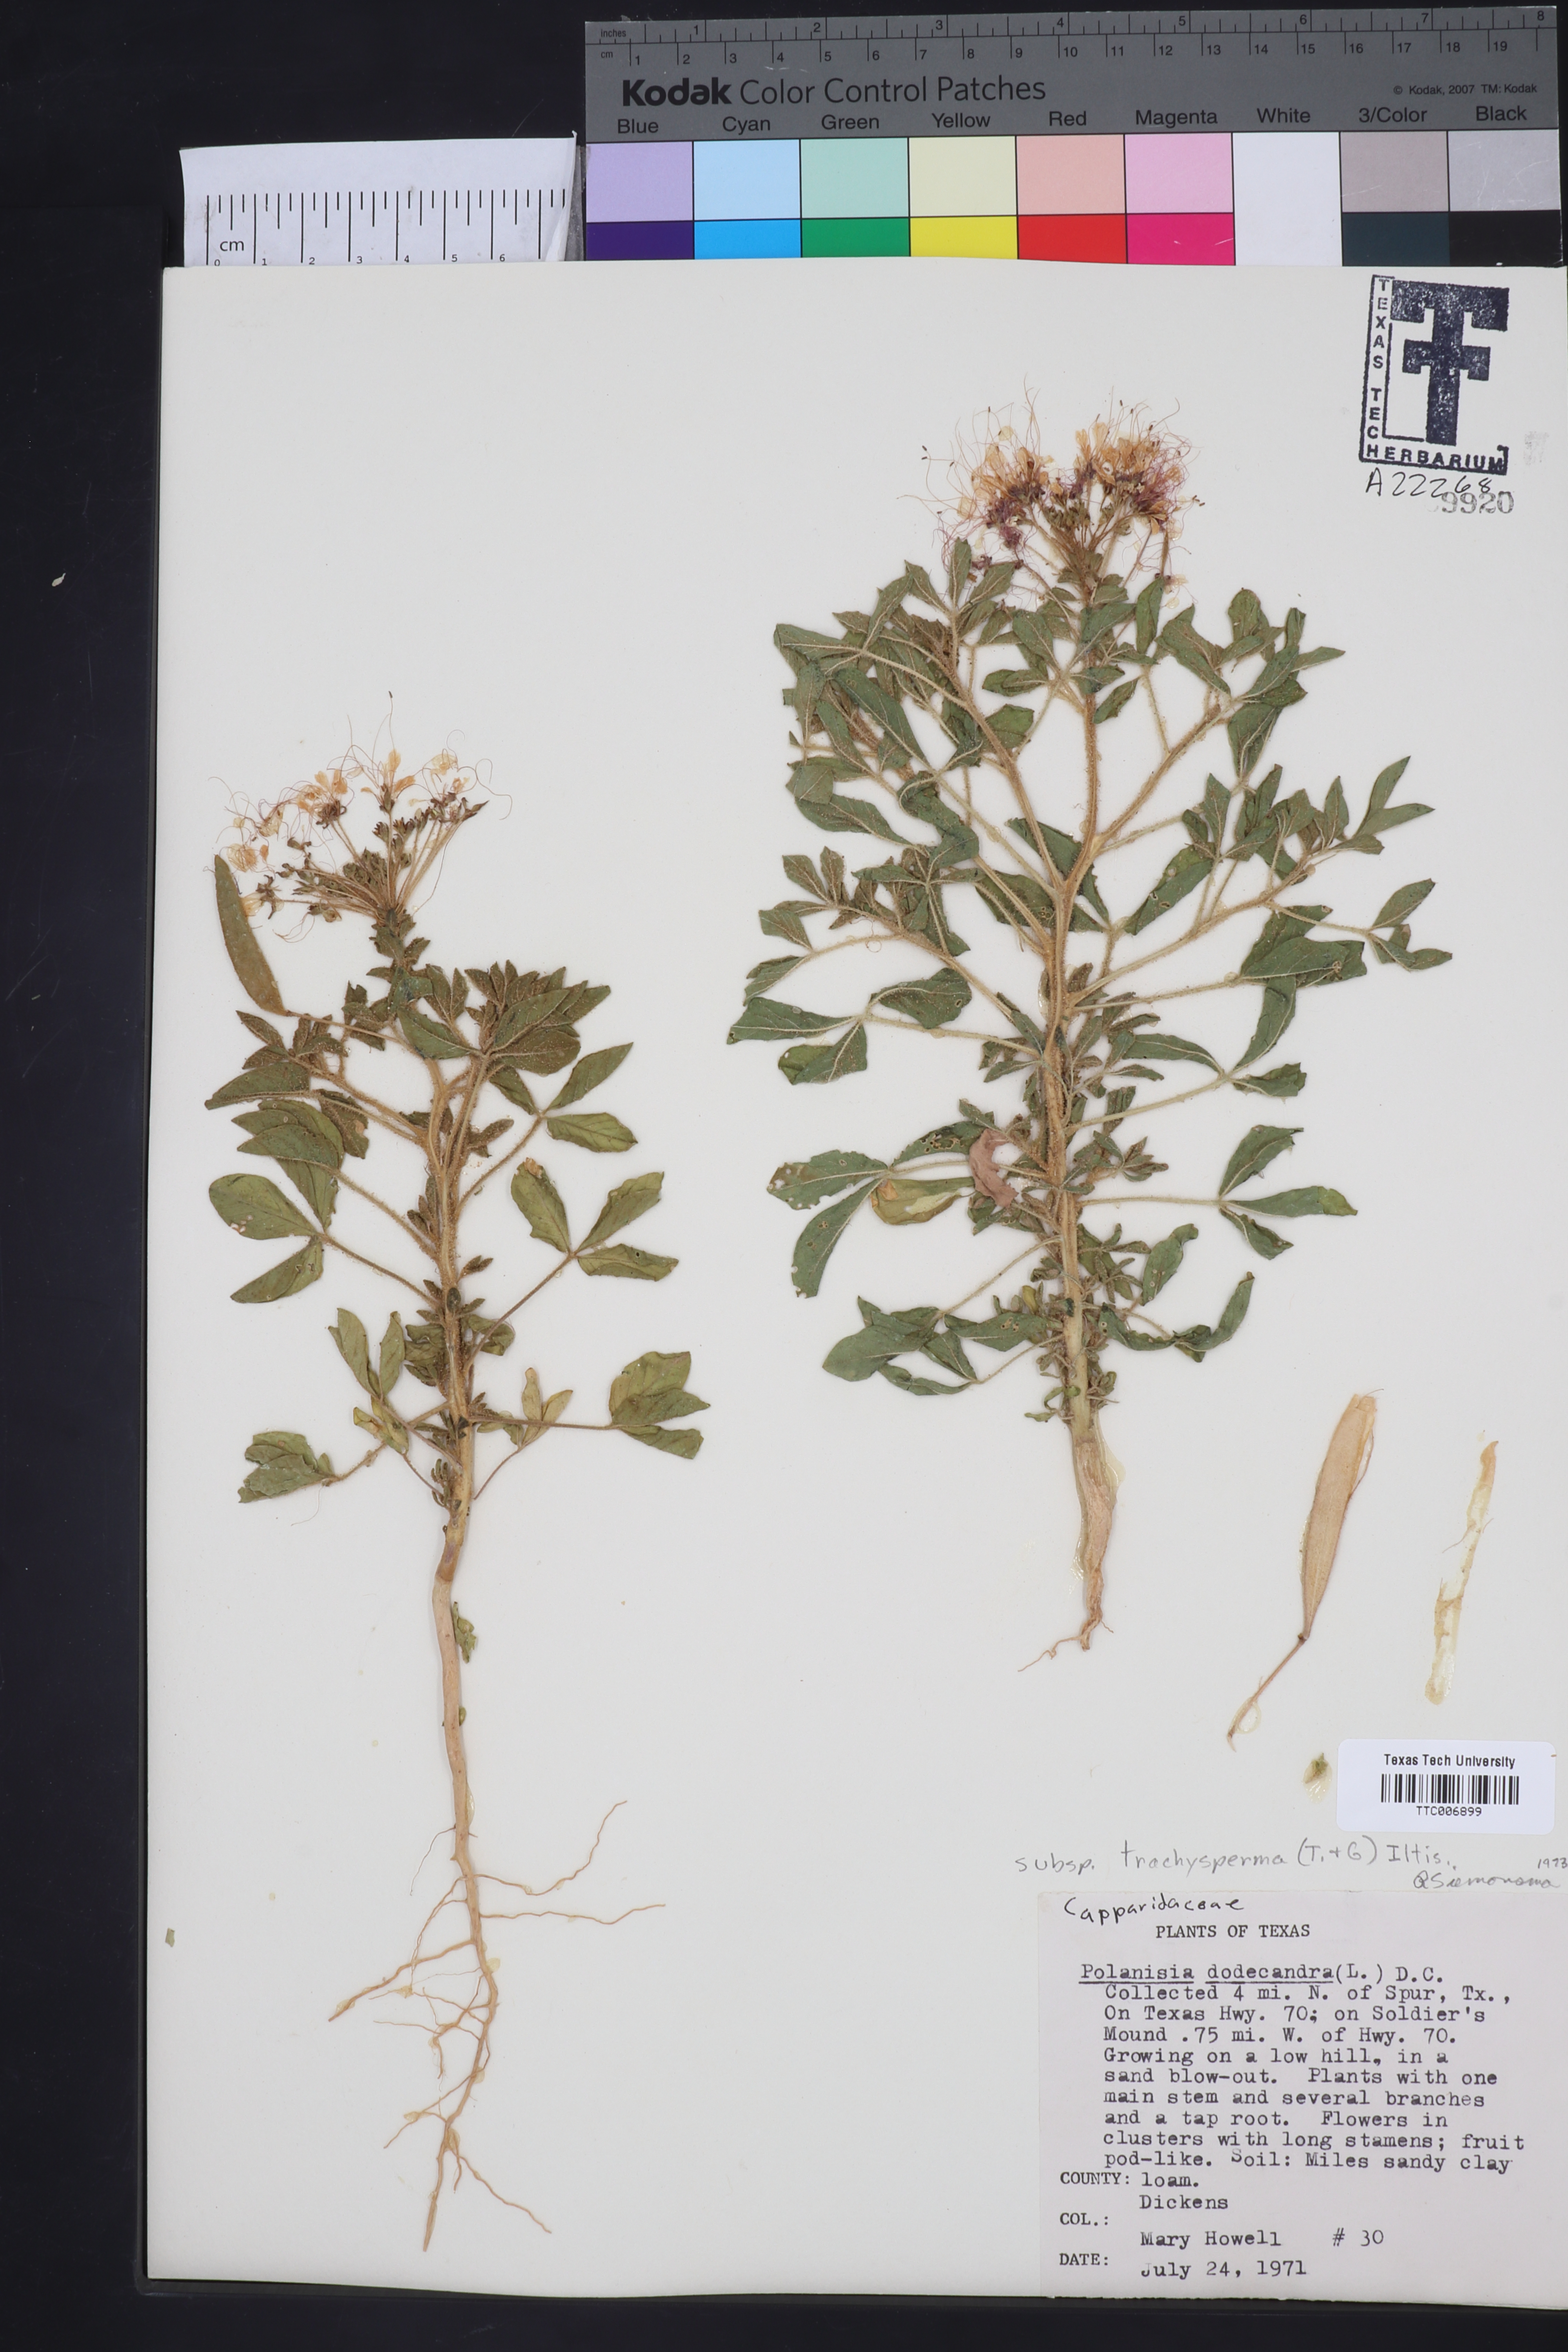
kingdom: Plantae
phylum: Tracheophyta
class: Magnoliopsida
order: Brassicales
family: Cleomaceae
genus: Polanisia
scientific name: Polanisia dodecandra
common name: Clammyweed
